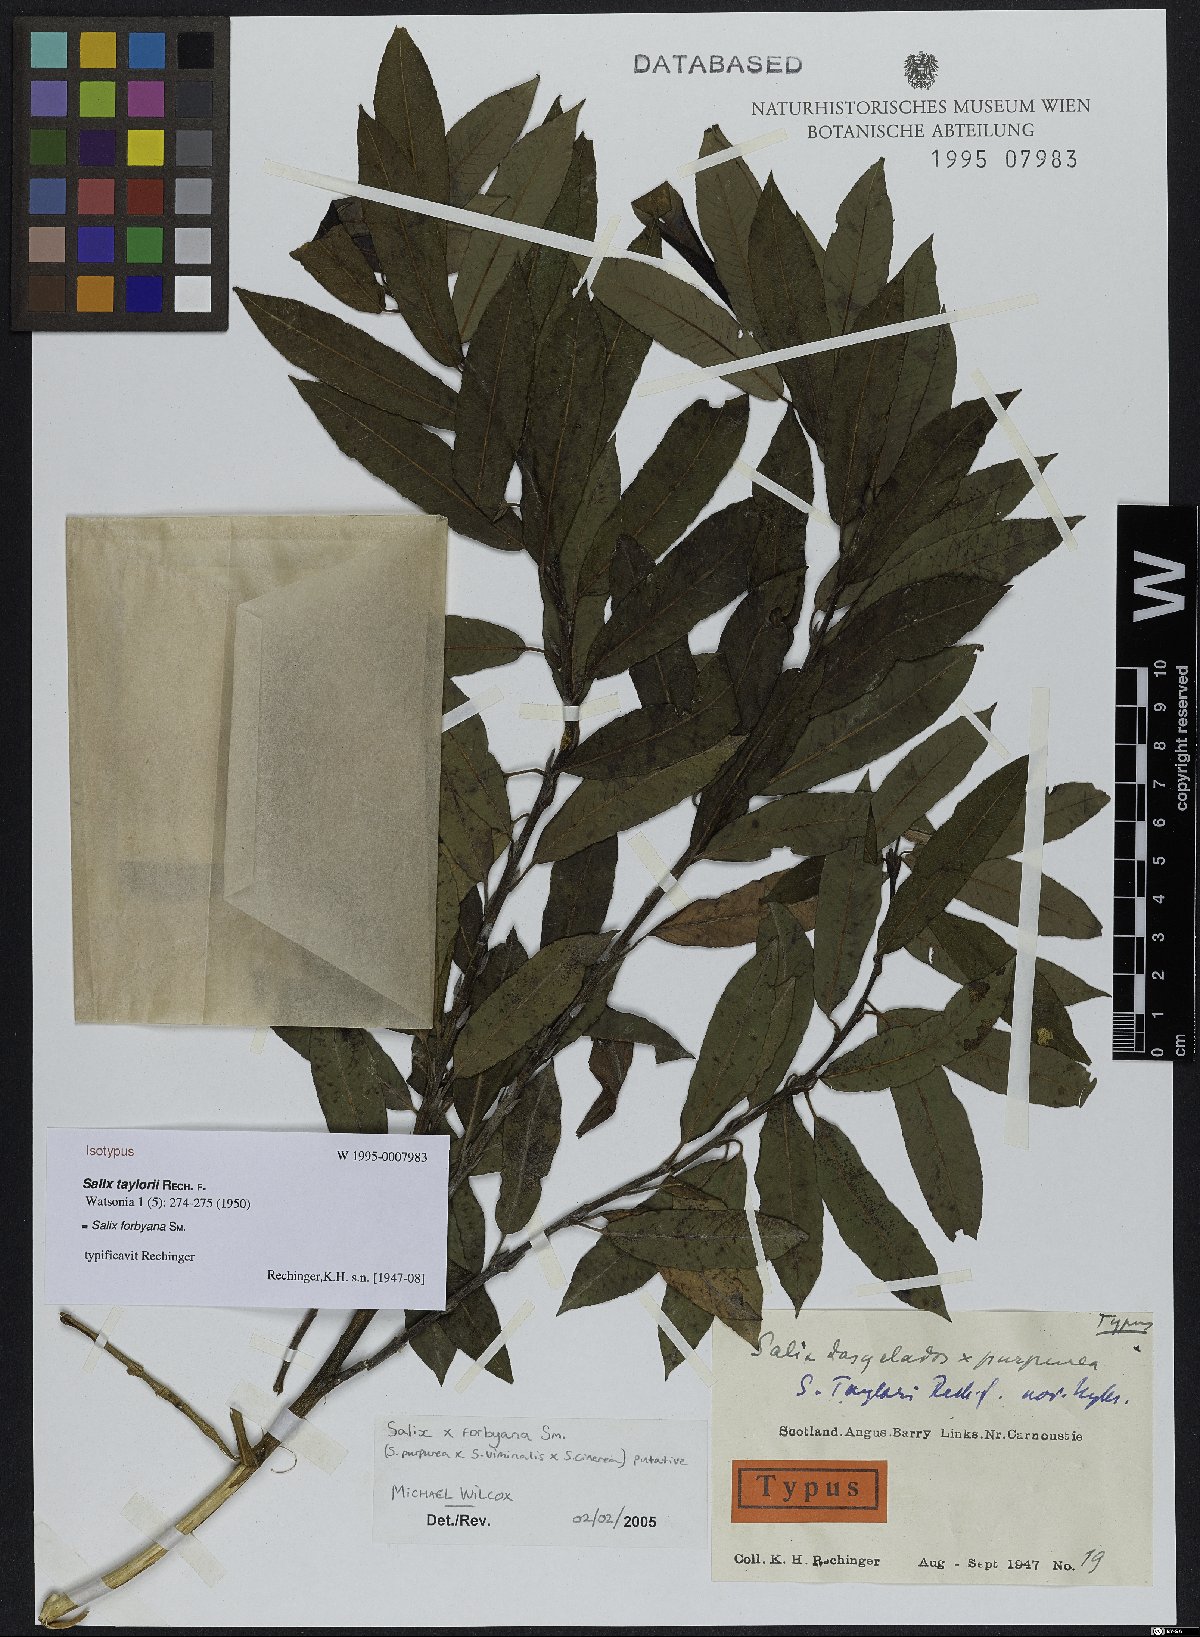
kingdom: Plantae
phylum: Tracheophyta
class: Magnoliopsida
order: Malpighiales
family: Salicaceae
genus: Salix
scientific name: Salix rubra
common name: Green-leaf willow
